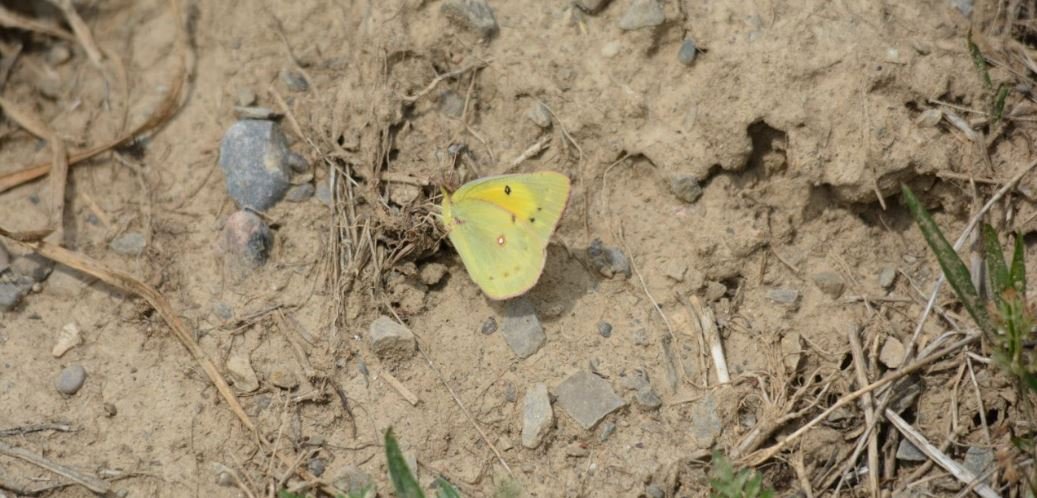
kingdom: Animalia
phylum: Arthropoda
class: Insecta
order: Lepidoptera
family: Pieridae
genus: Colias
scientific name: Colias eurytheme
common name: Orange Sulphur
